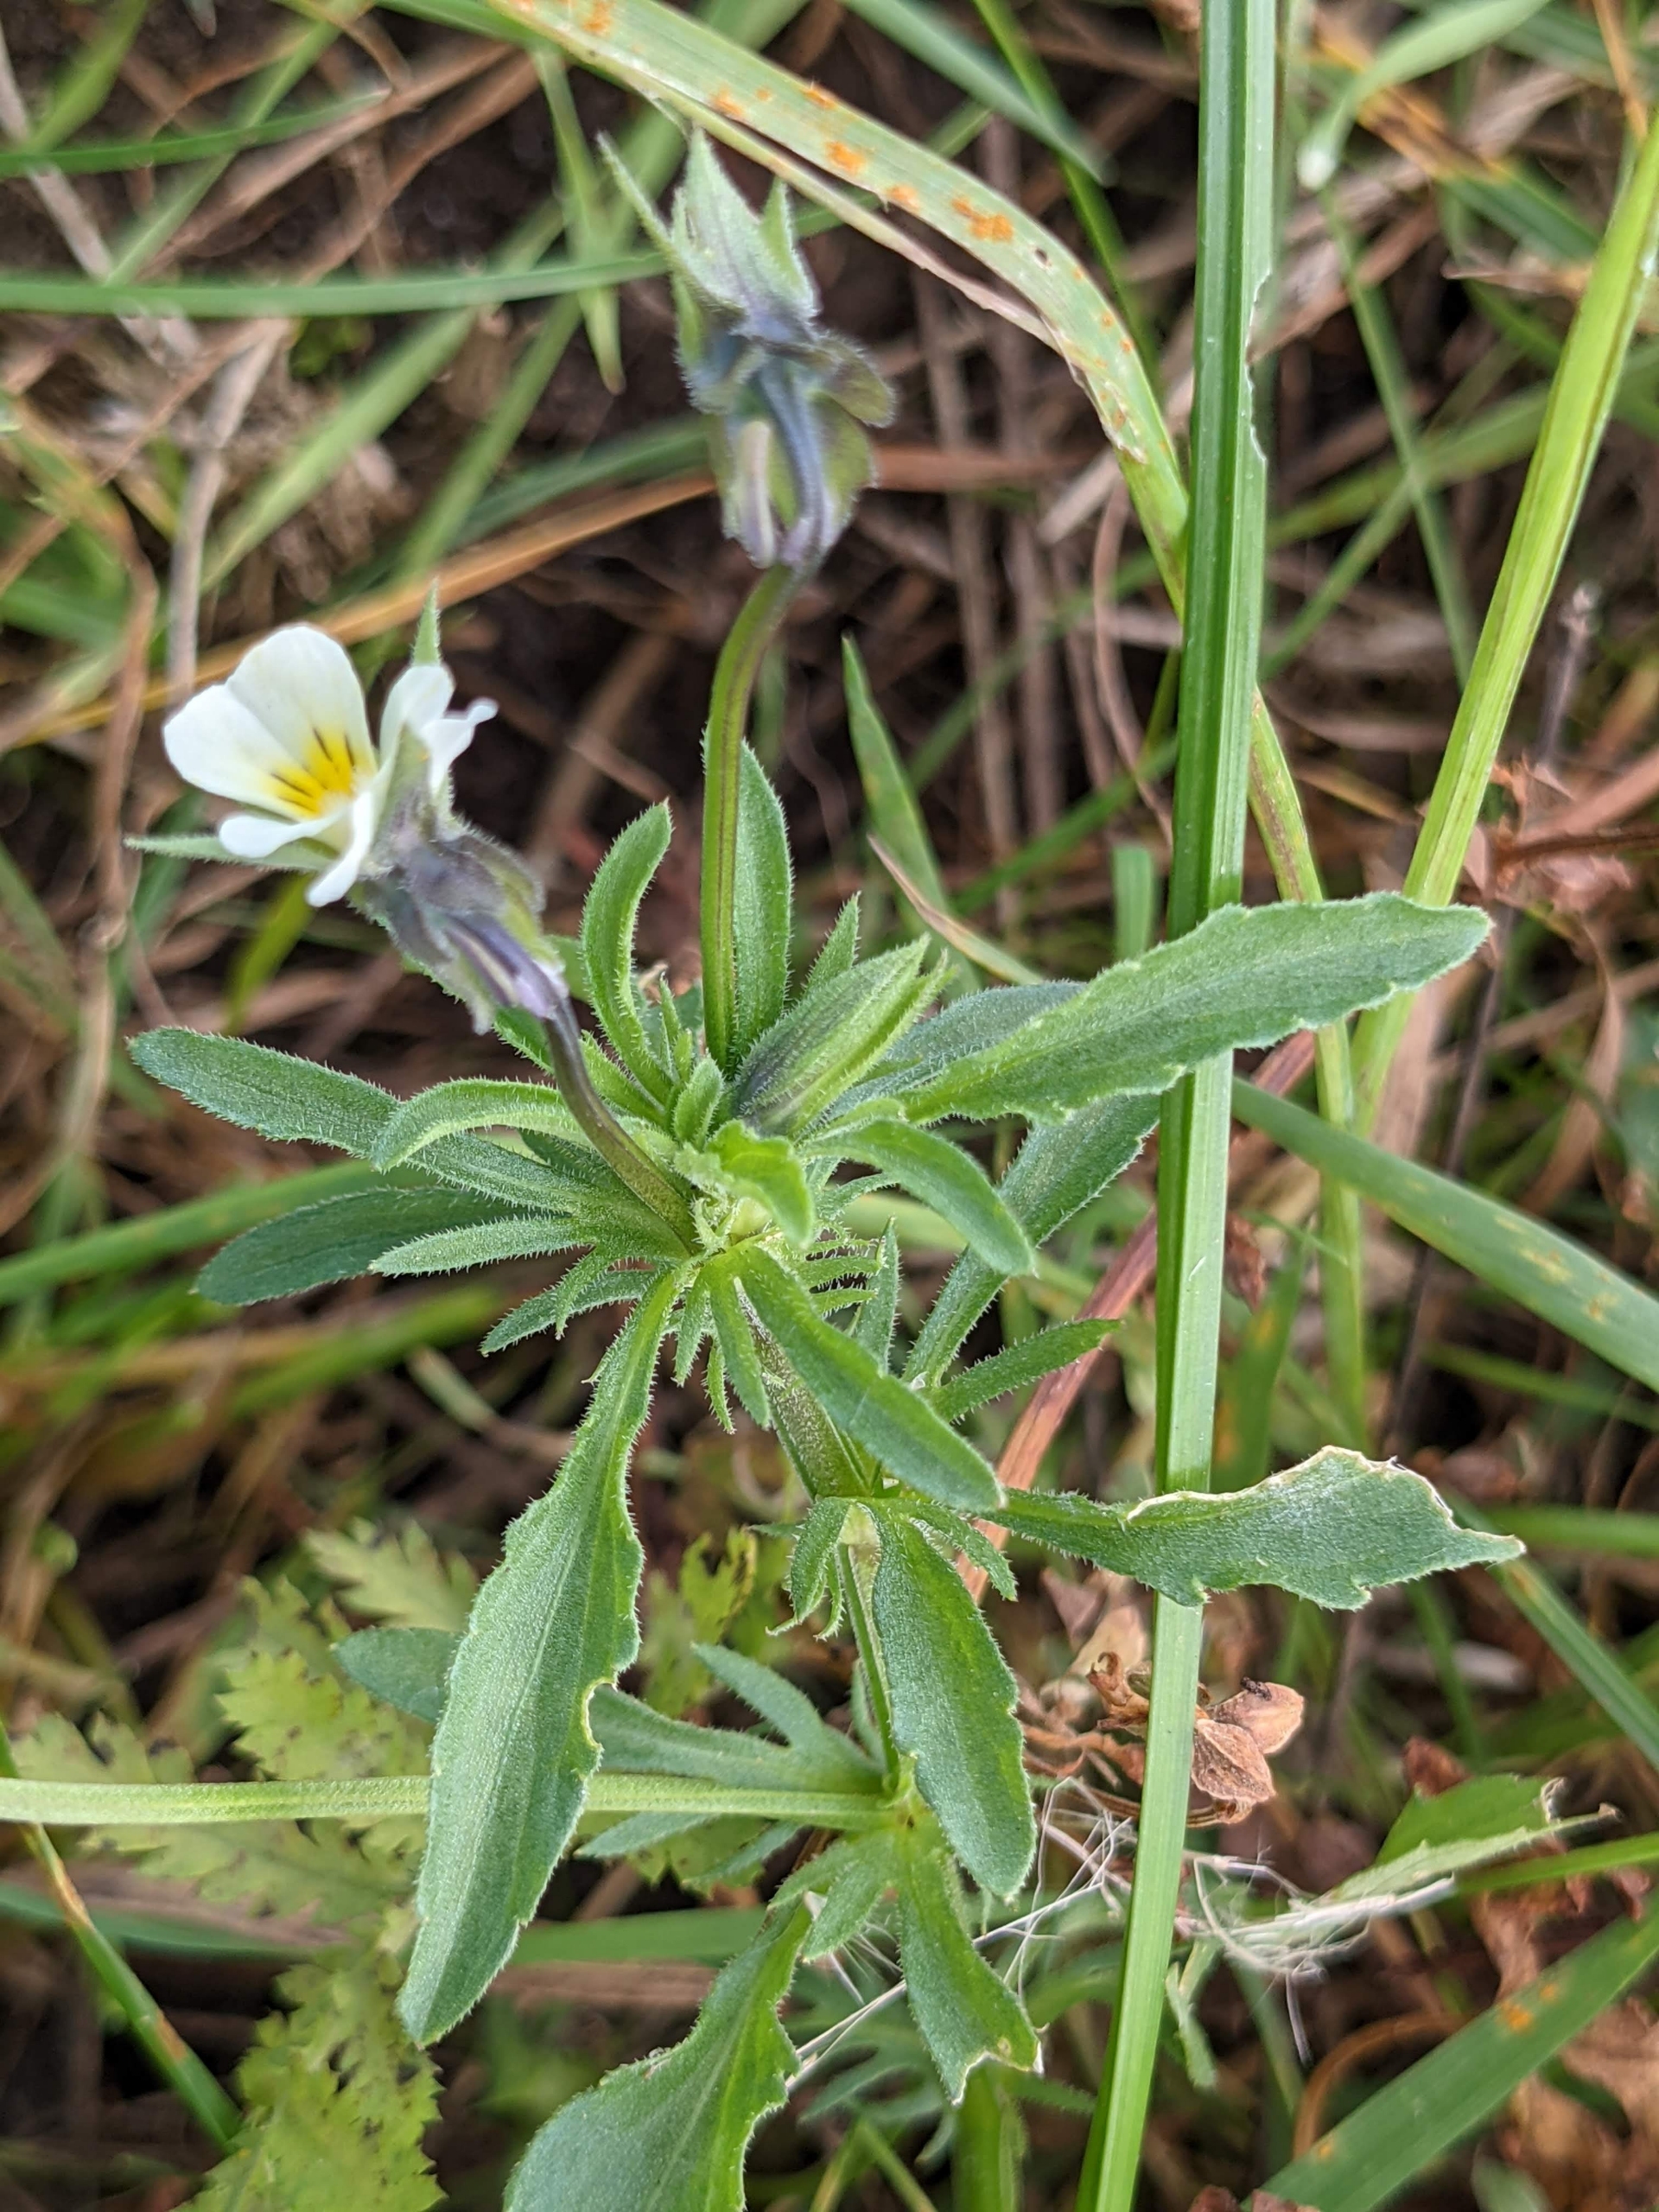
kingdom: Plantae
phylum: Tracheophyta
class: Magnoliopsida
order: Malpighiales
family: Violaceae
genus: Viola
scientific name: Viola arvensis
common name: Ager-stedmoderblomst
